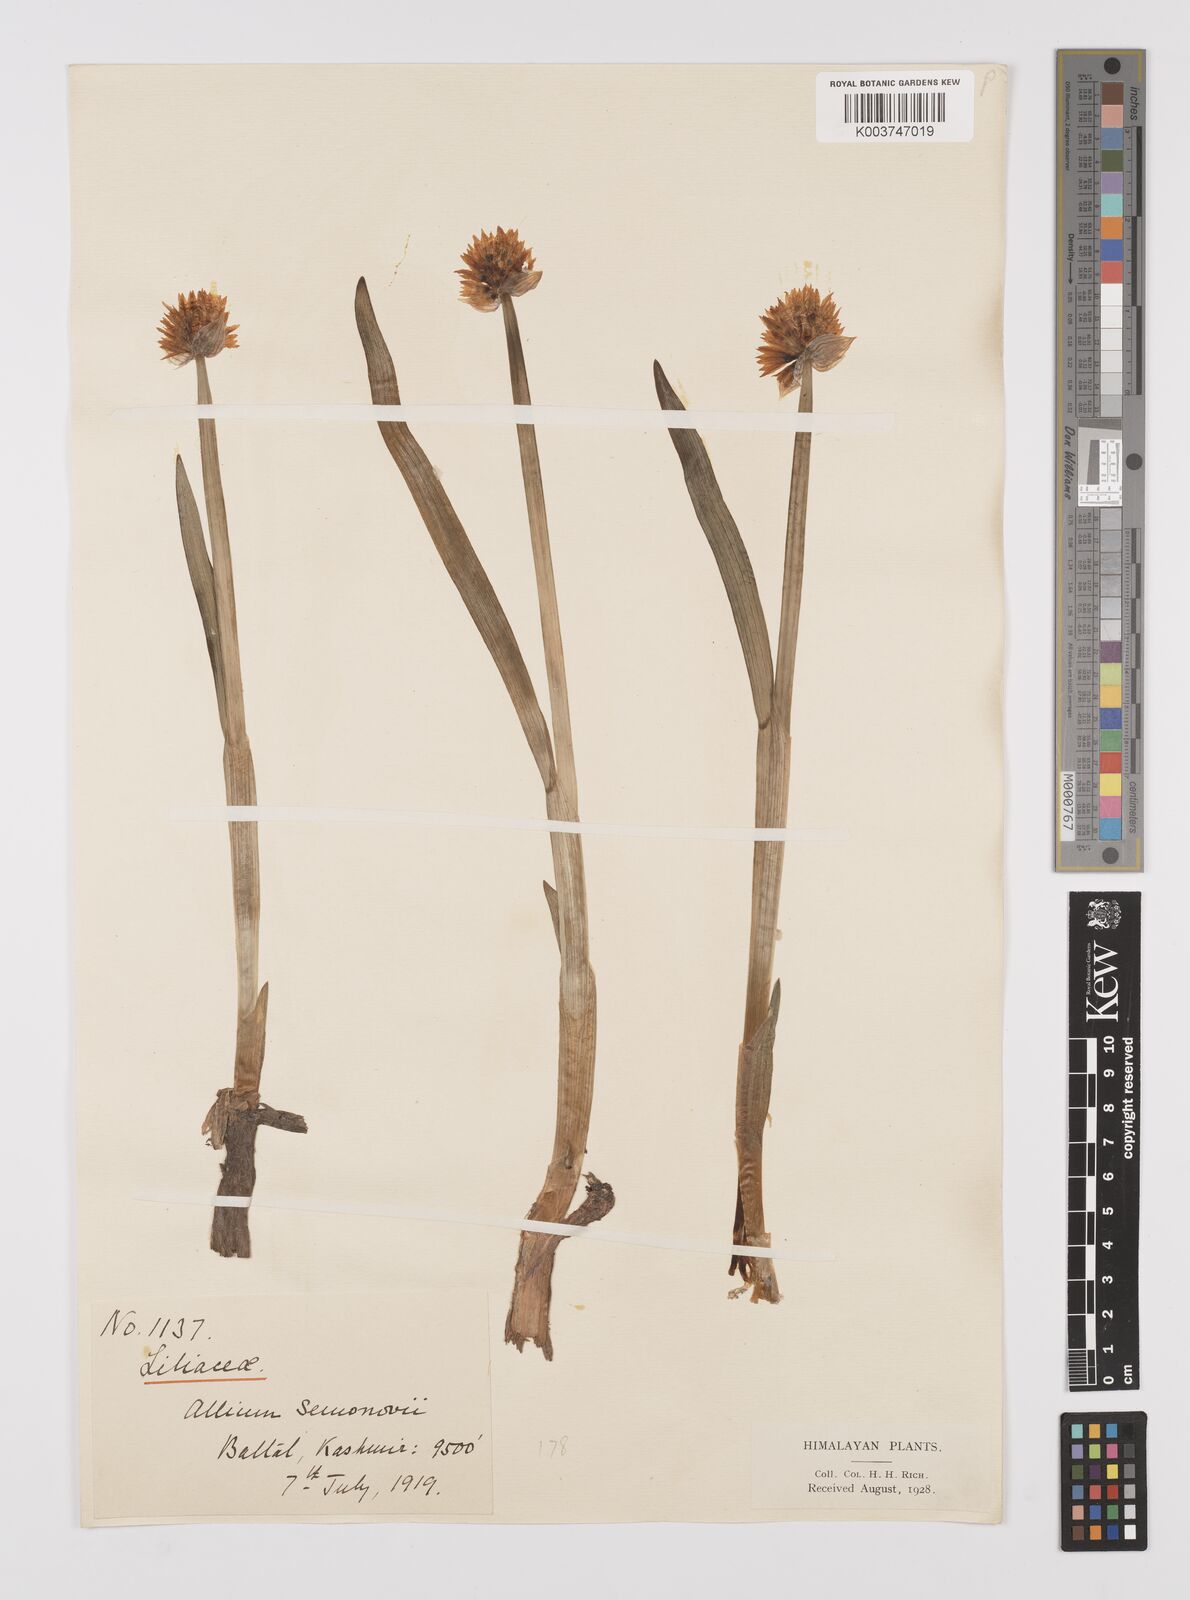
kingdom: Plantae
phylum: Tracheophyta
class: Liliopsida
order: Asparagales
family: Amaryllidaceae
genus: Allium
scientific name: Allium semenovii
